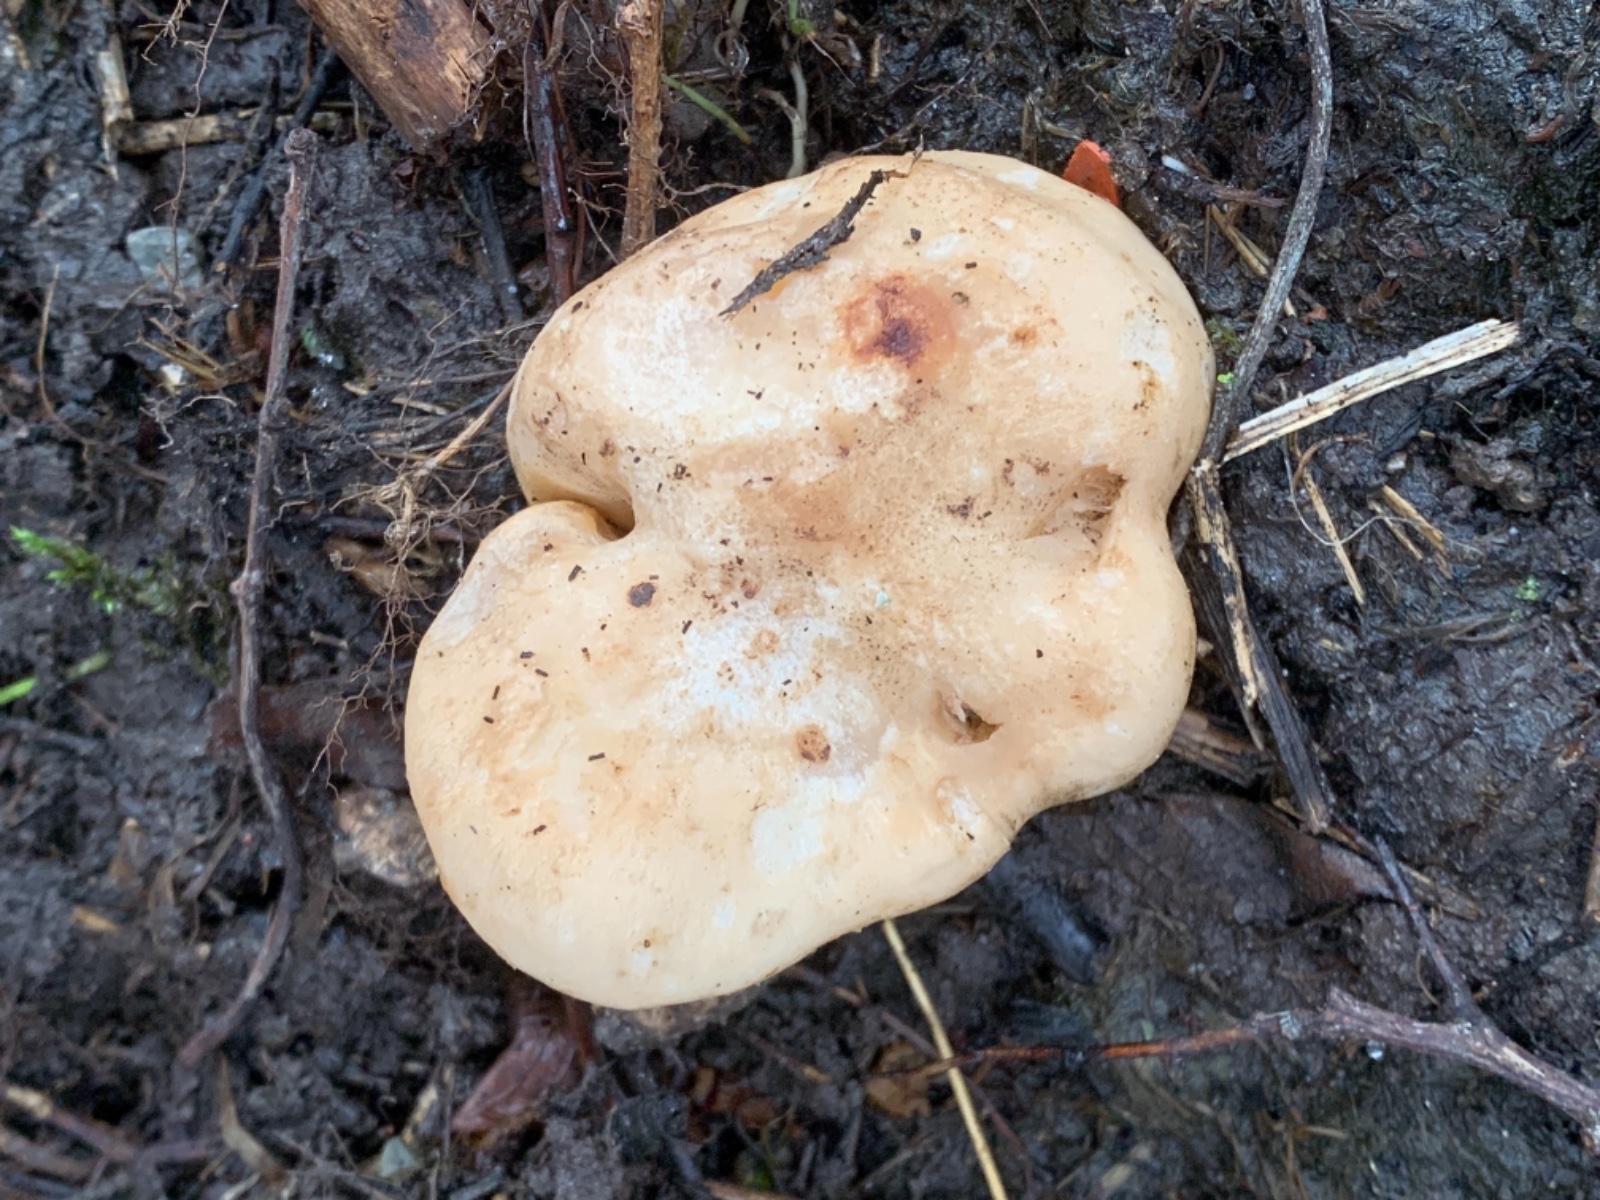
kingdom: Fungi
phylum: Basidiomycota
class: Agaricomycetes
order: Agaricales
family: Lyophyllaceae
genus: Calocybe
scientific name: Calocybe gambosa
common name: vårmusseron
